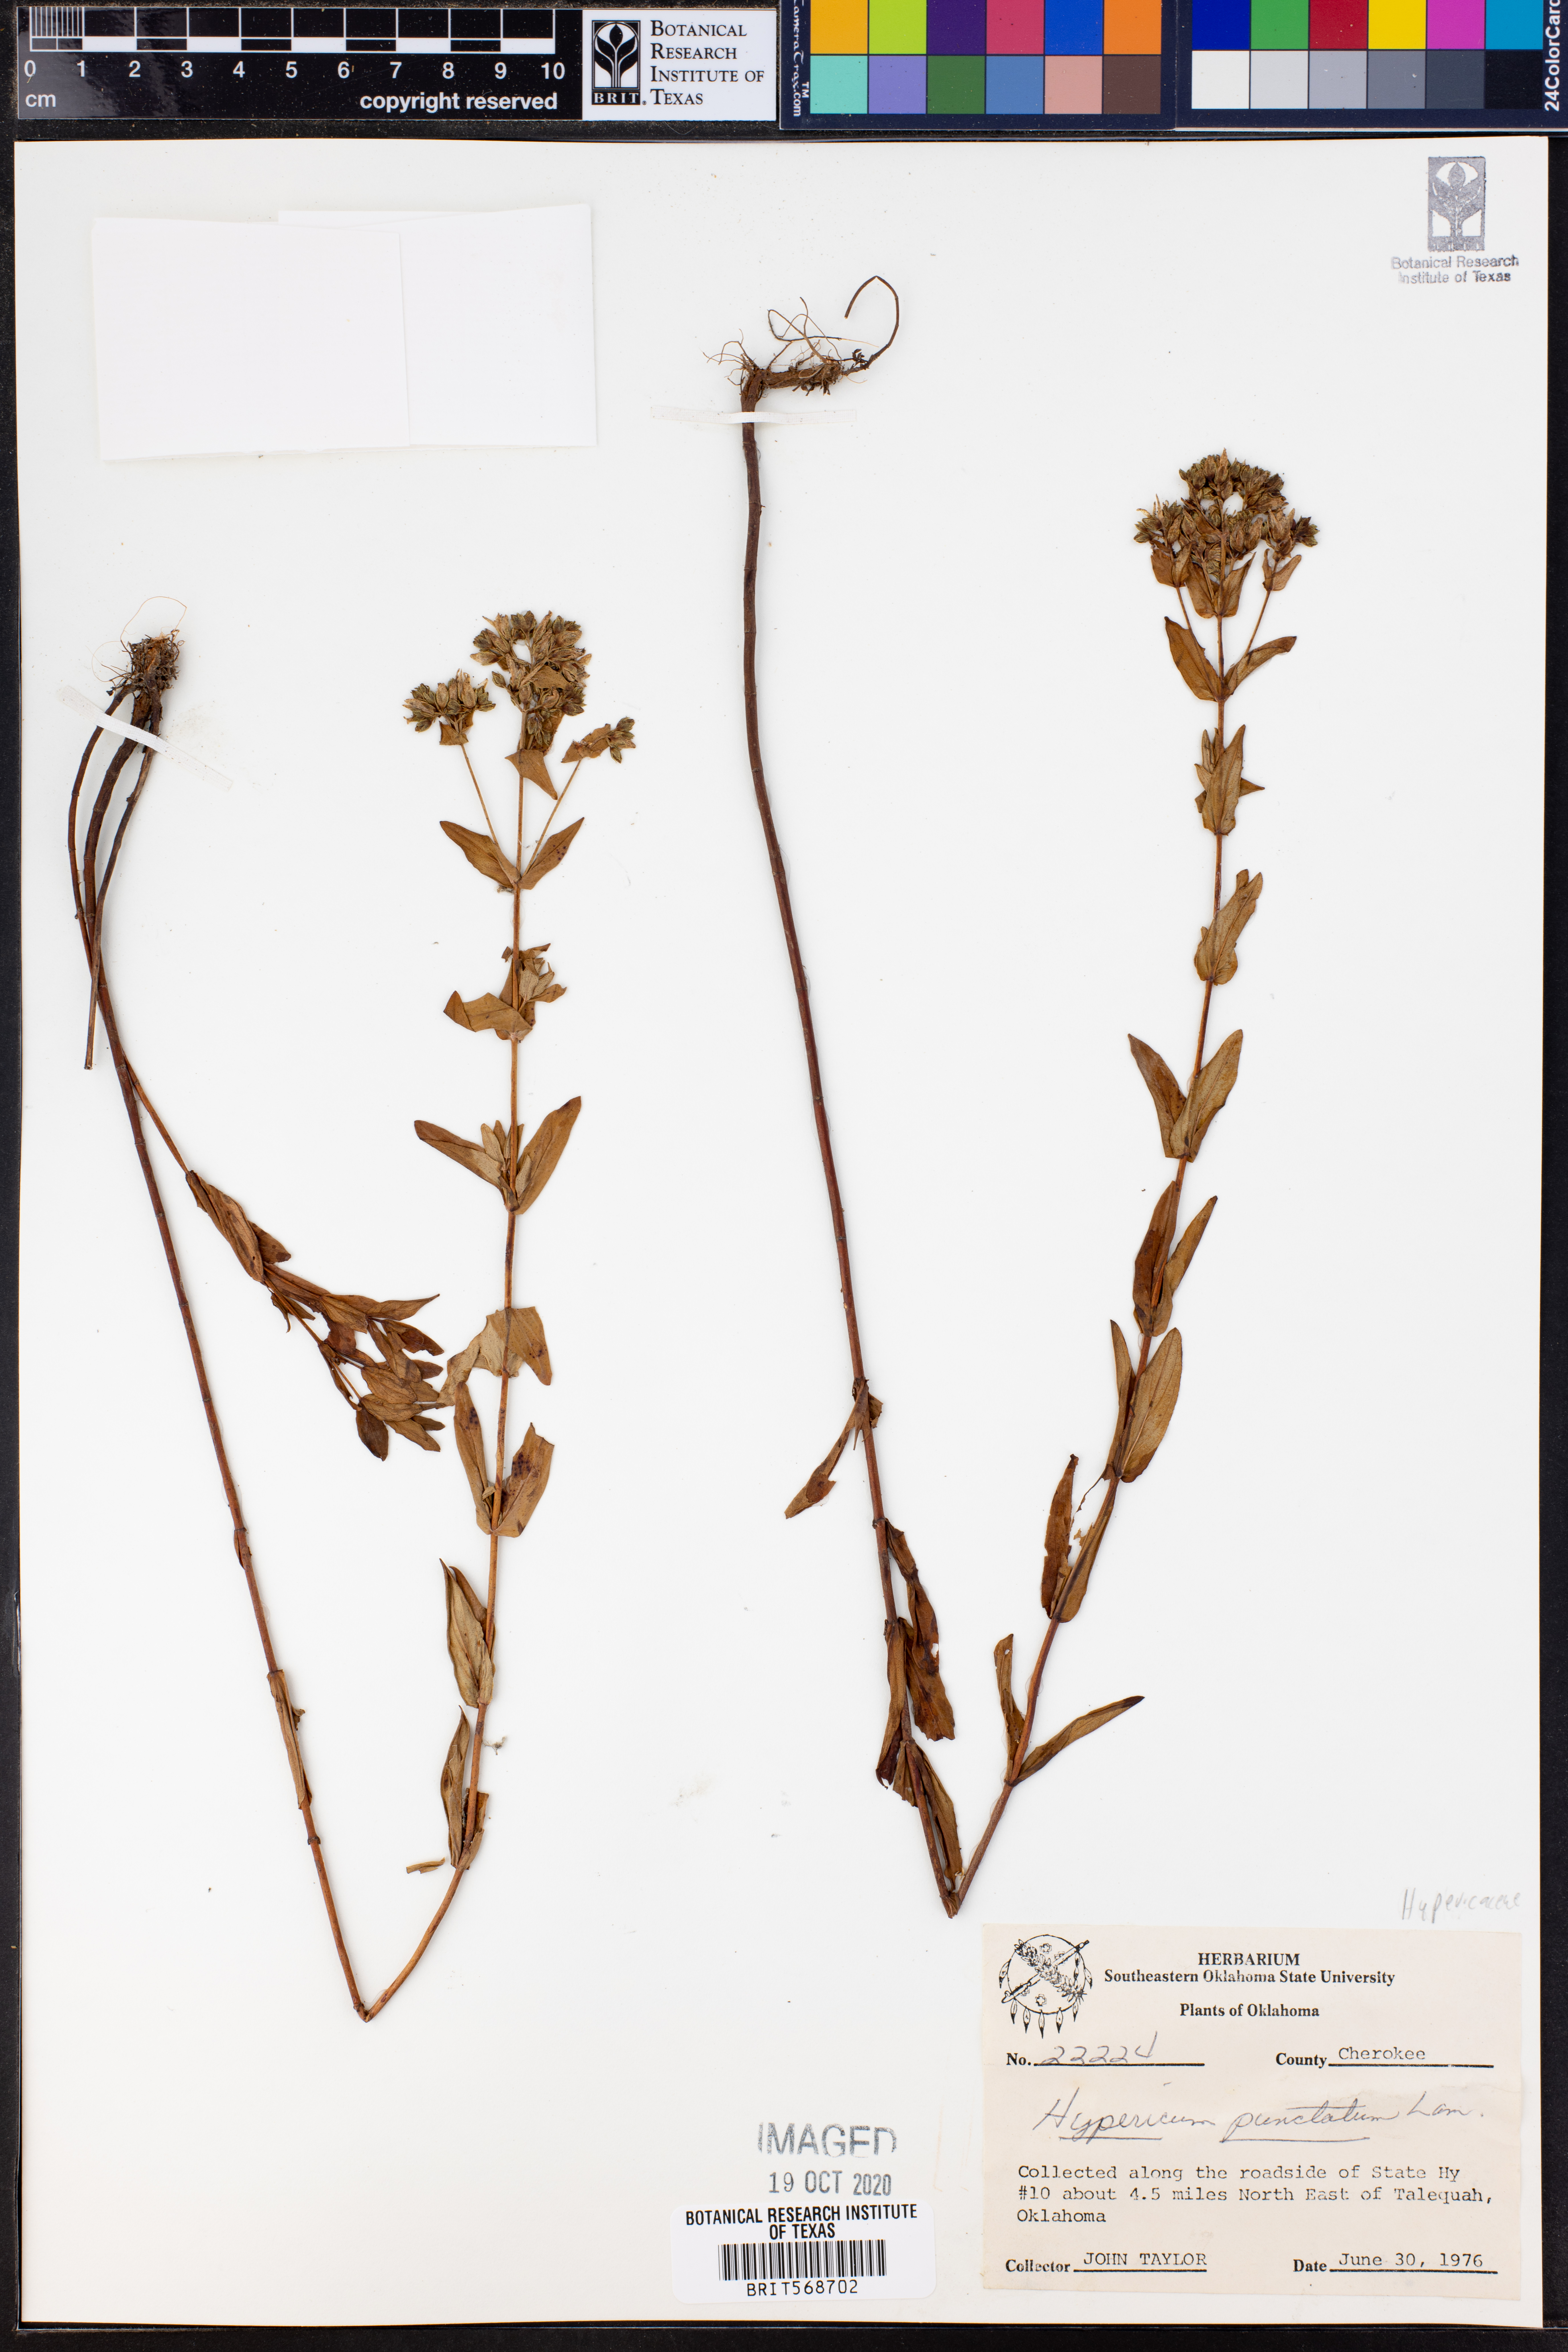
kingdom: Plantae
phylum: Tracheophyta
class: Magnoliopsida
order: Malpighiales
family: Hypericaceae
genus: Hypericum
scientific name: Hypericum punctatum
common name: Spotted st. john's-wort
